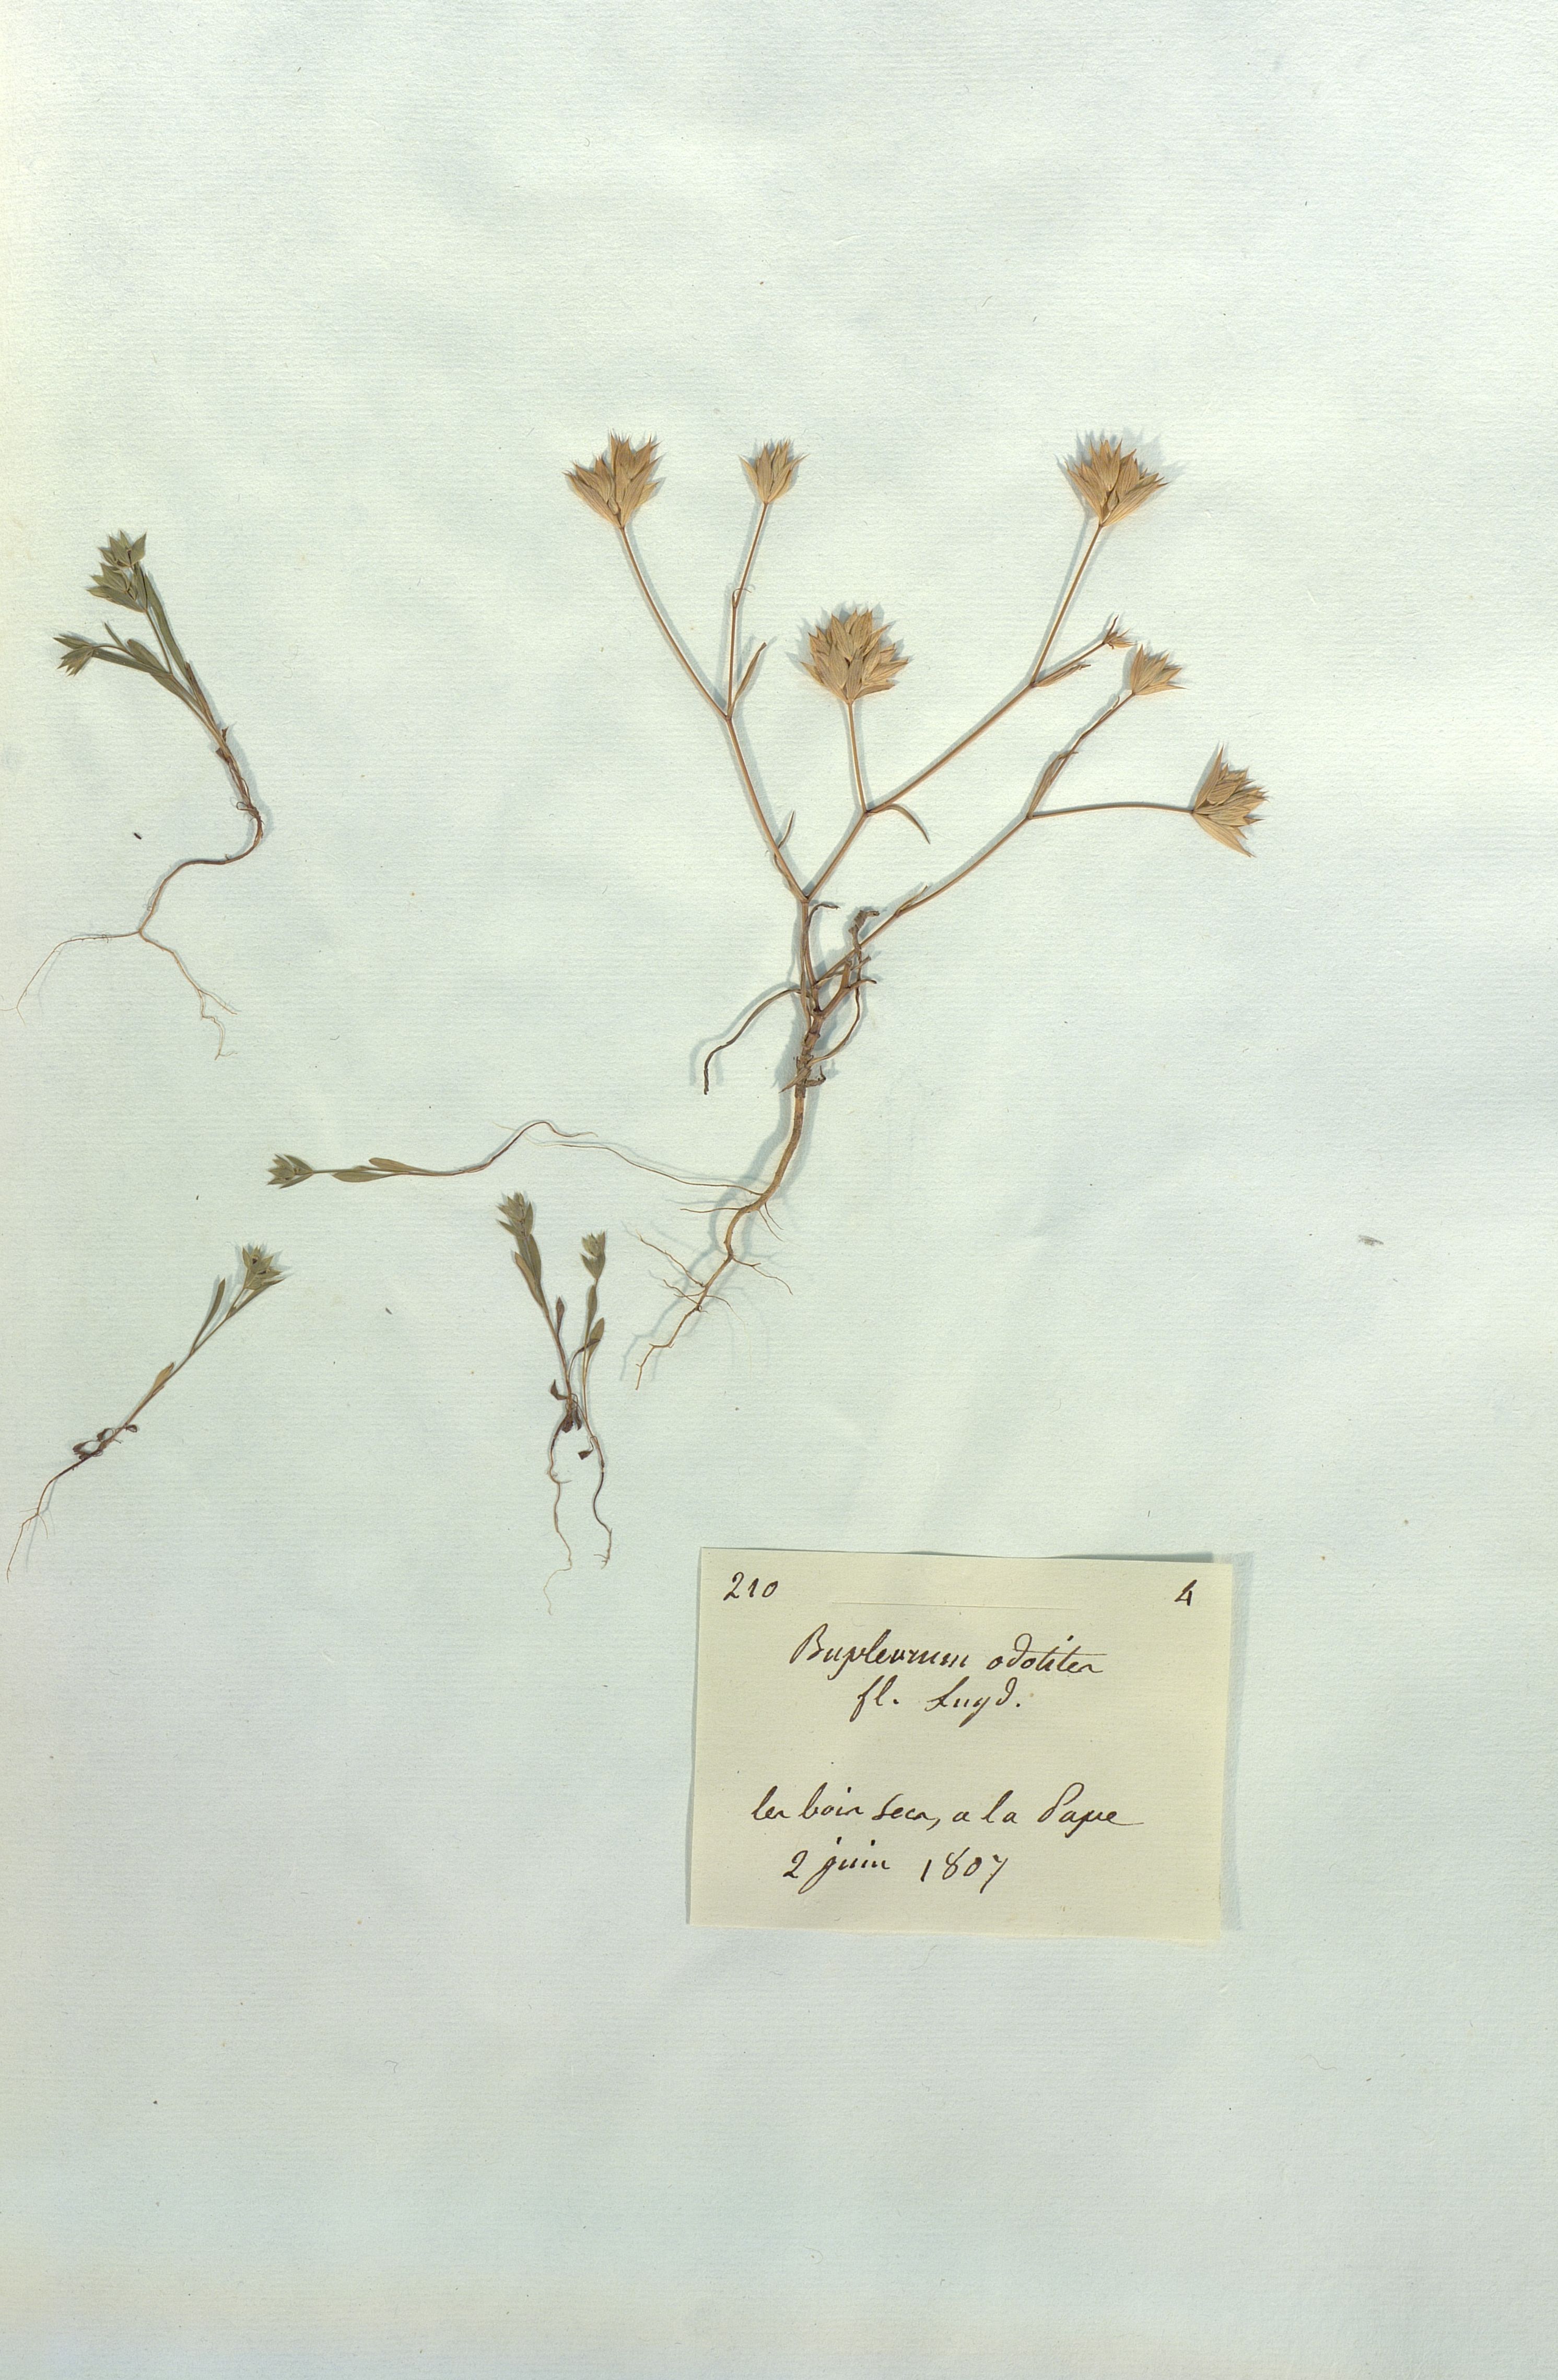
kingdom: Plantae
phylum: Tracheophyta
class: Magnoliopsida
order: Apiales
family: Apiaceae
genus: Bupleurum
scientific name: Bupleurum odontites
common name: Narrowleaf thorow wax
